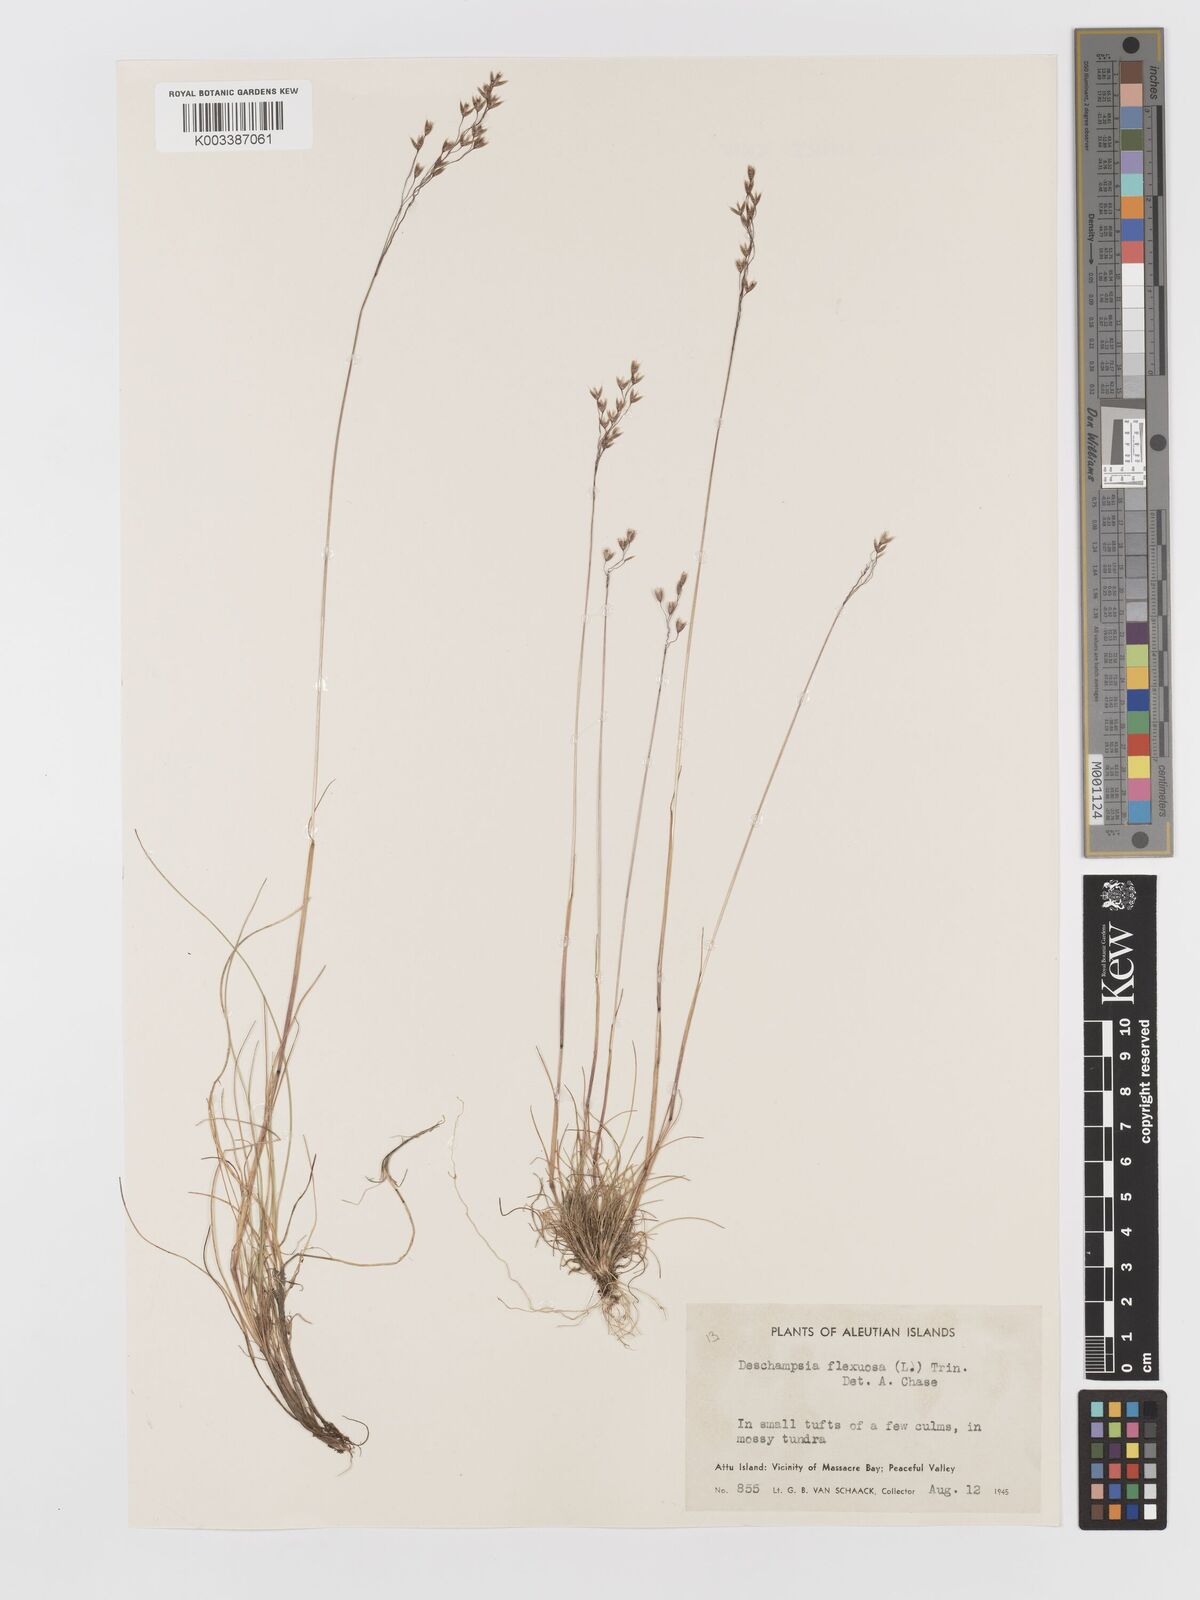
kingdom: Plantae
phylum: Tracheophyta
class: Liliopsida
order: Poales
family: Poaceae
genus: Avenella
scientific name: Avenella flexuosa
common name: Wavy hairgrass
